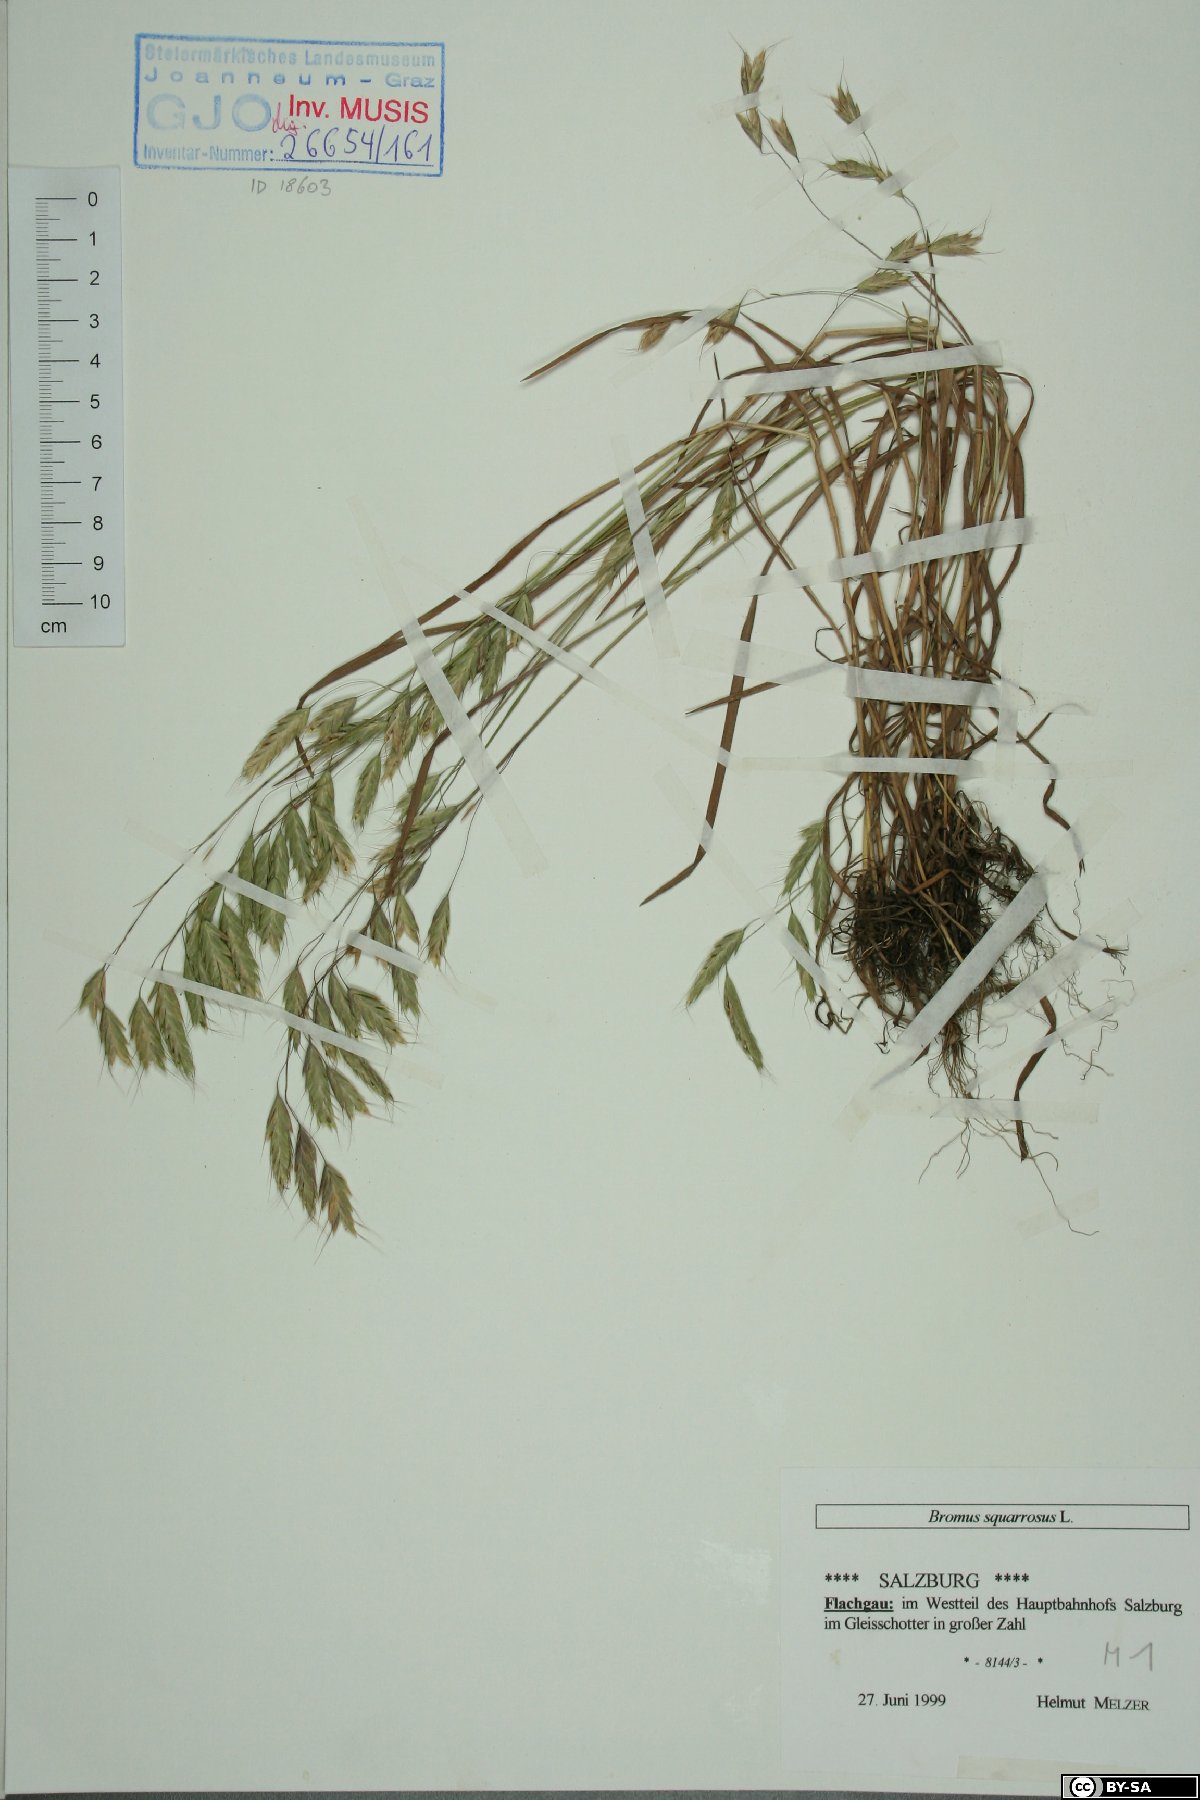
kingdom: Plantae
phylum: Tracheophyta
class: Liliopsida
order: Poales
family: Poaceae
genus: Bromus
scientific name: Bromus squarrosus
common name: Corn brome
